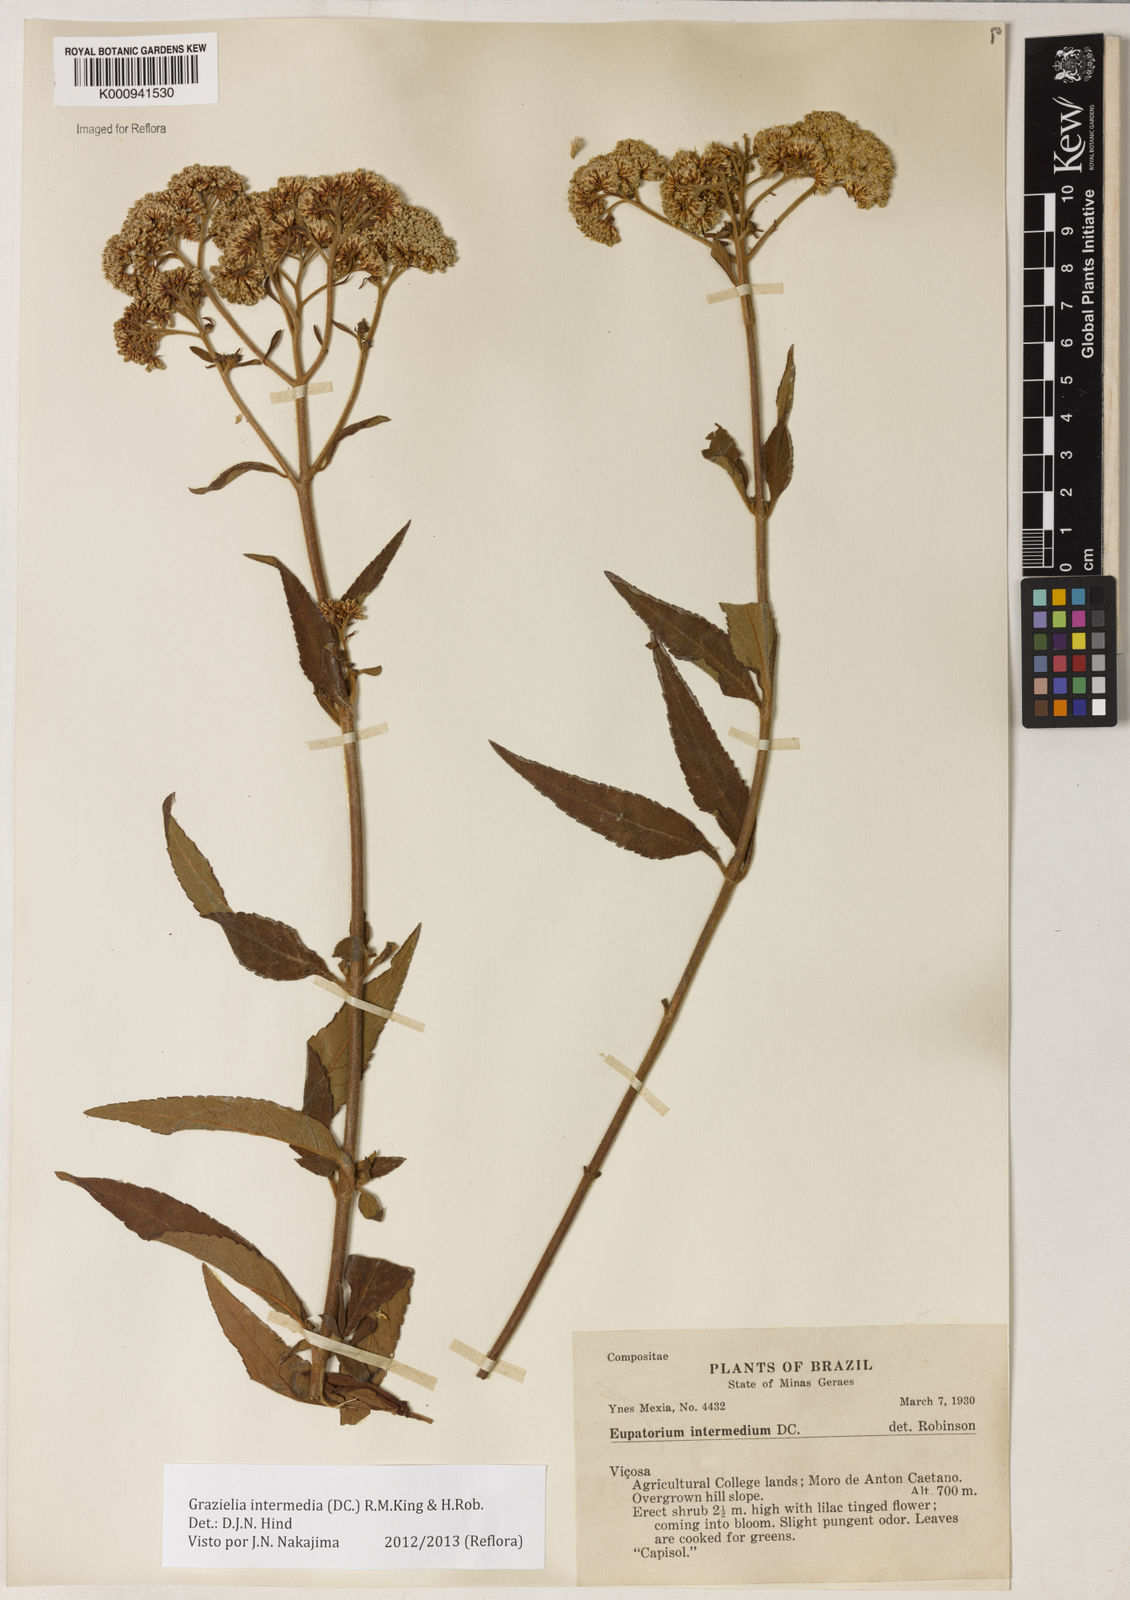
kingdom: Plantae
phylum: Tracheophyta
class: Magnoliopsida
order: Asterales
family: Asteraceae
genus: Grazielia
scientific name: Grazielia intermedia
